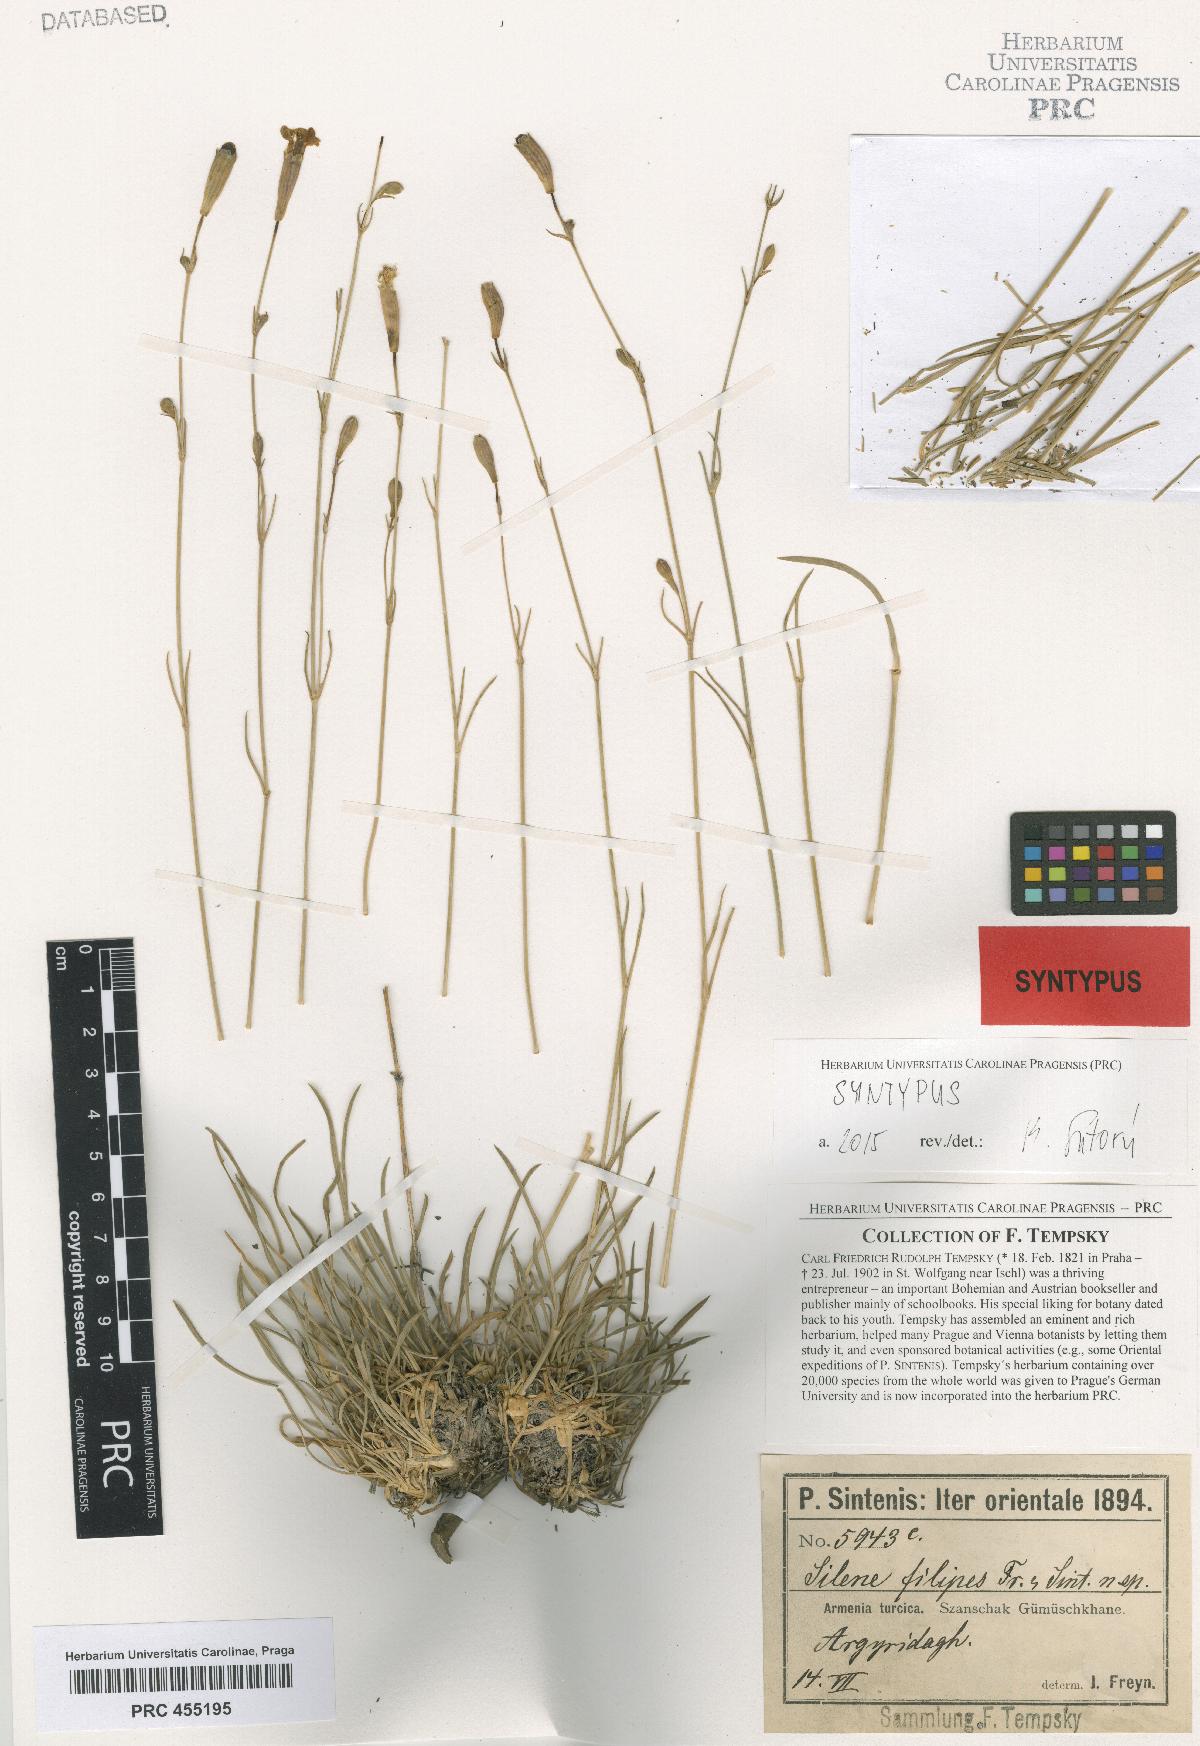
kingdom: Plantae
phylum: Tracheophyta
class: Magnoliopsida
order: Caryophyllales
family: Caryophyllaceae
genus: Silene
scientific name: Silene armena
